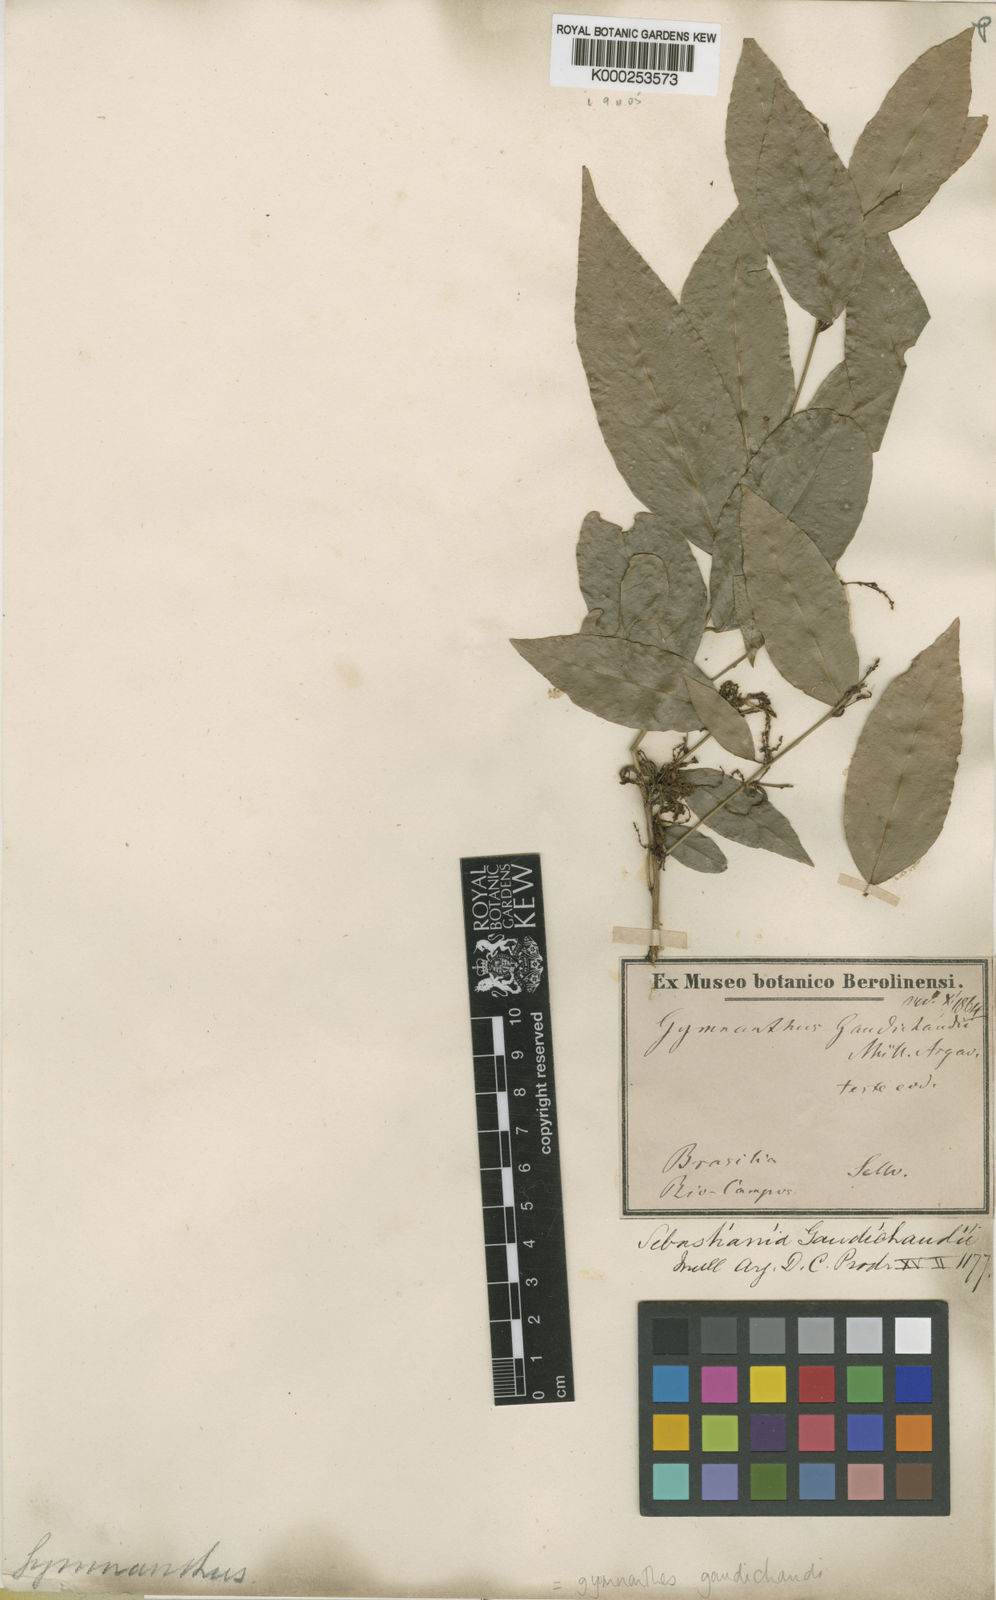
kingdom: Plantae
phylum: Tracheophyta
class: Magnoliopsida
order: Malpighiales
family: Euphorbiaceae
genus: Gymnanthes
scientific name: Gymnanthes
